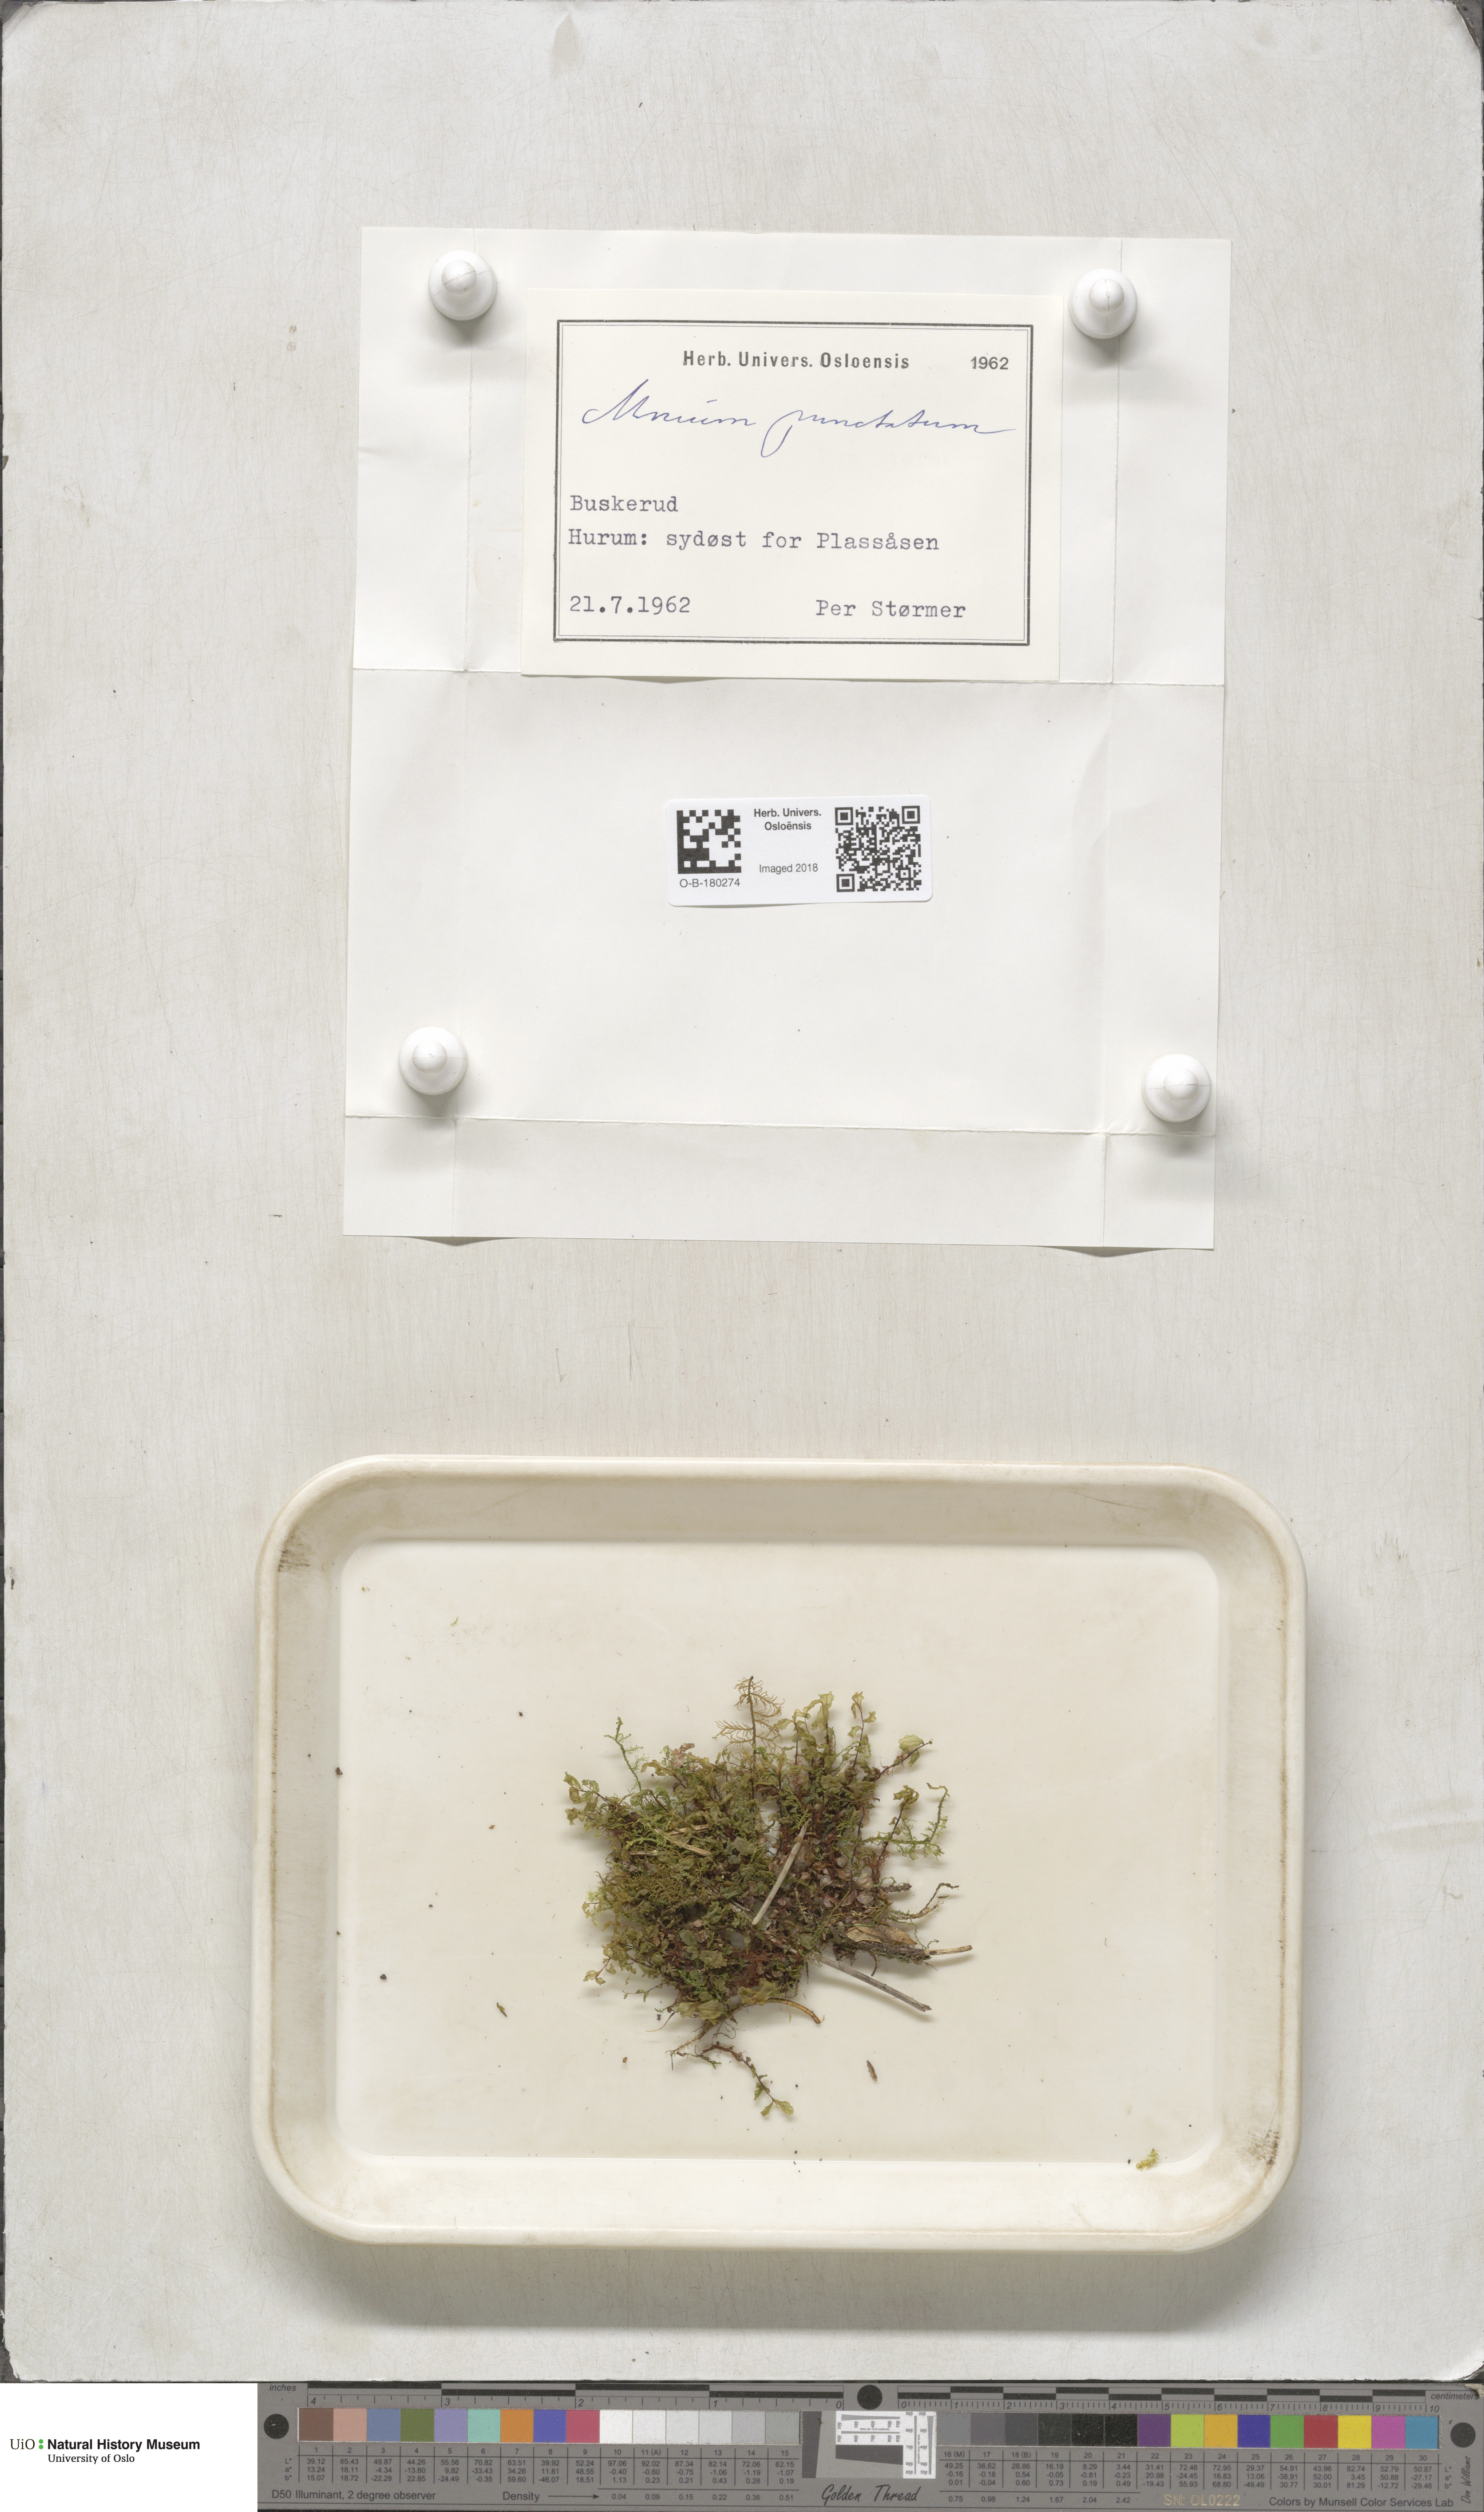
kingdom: Plantae
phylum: Bryophyta
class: Bryopsida
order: Bryales
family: Mniaceae
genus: Rhizomnium
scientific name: Rhizomnium punctatum
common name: Dotted leafy moss
